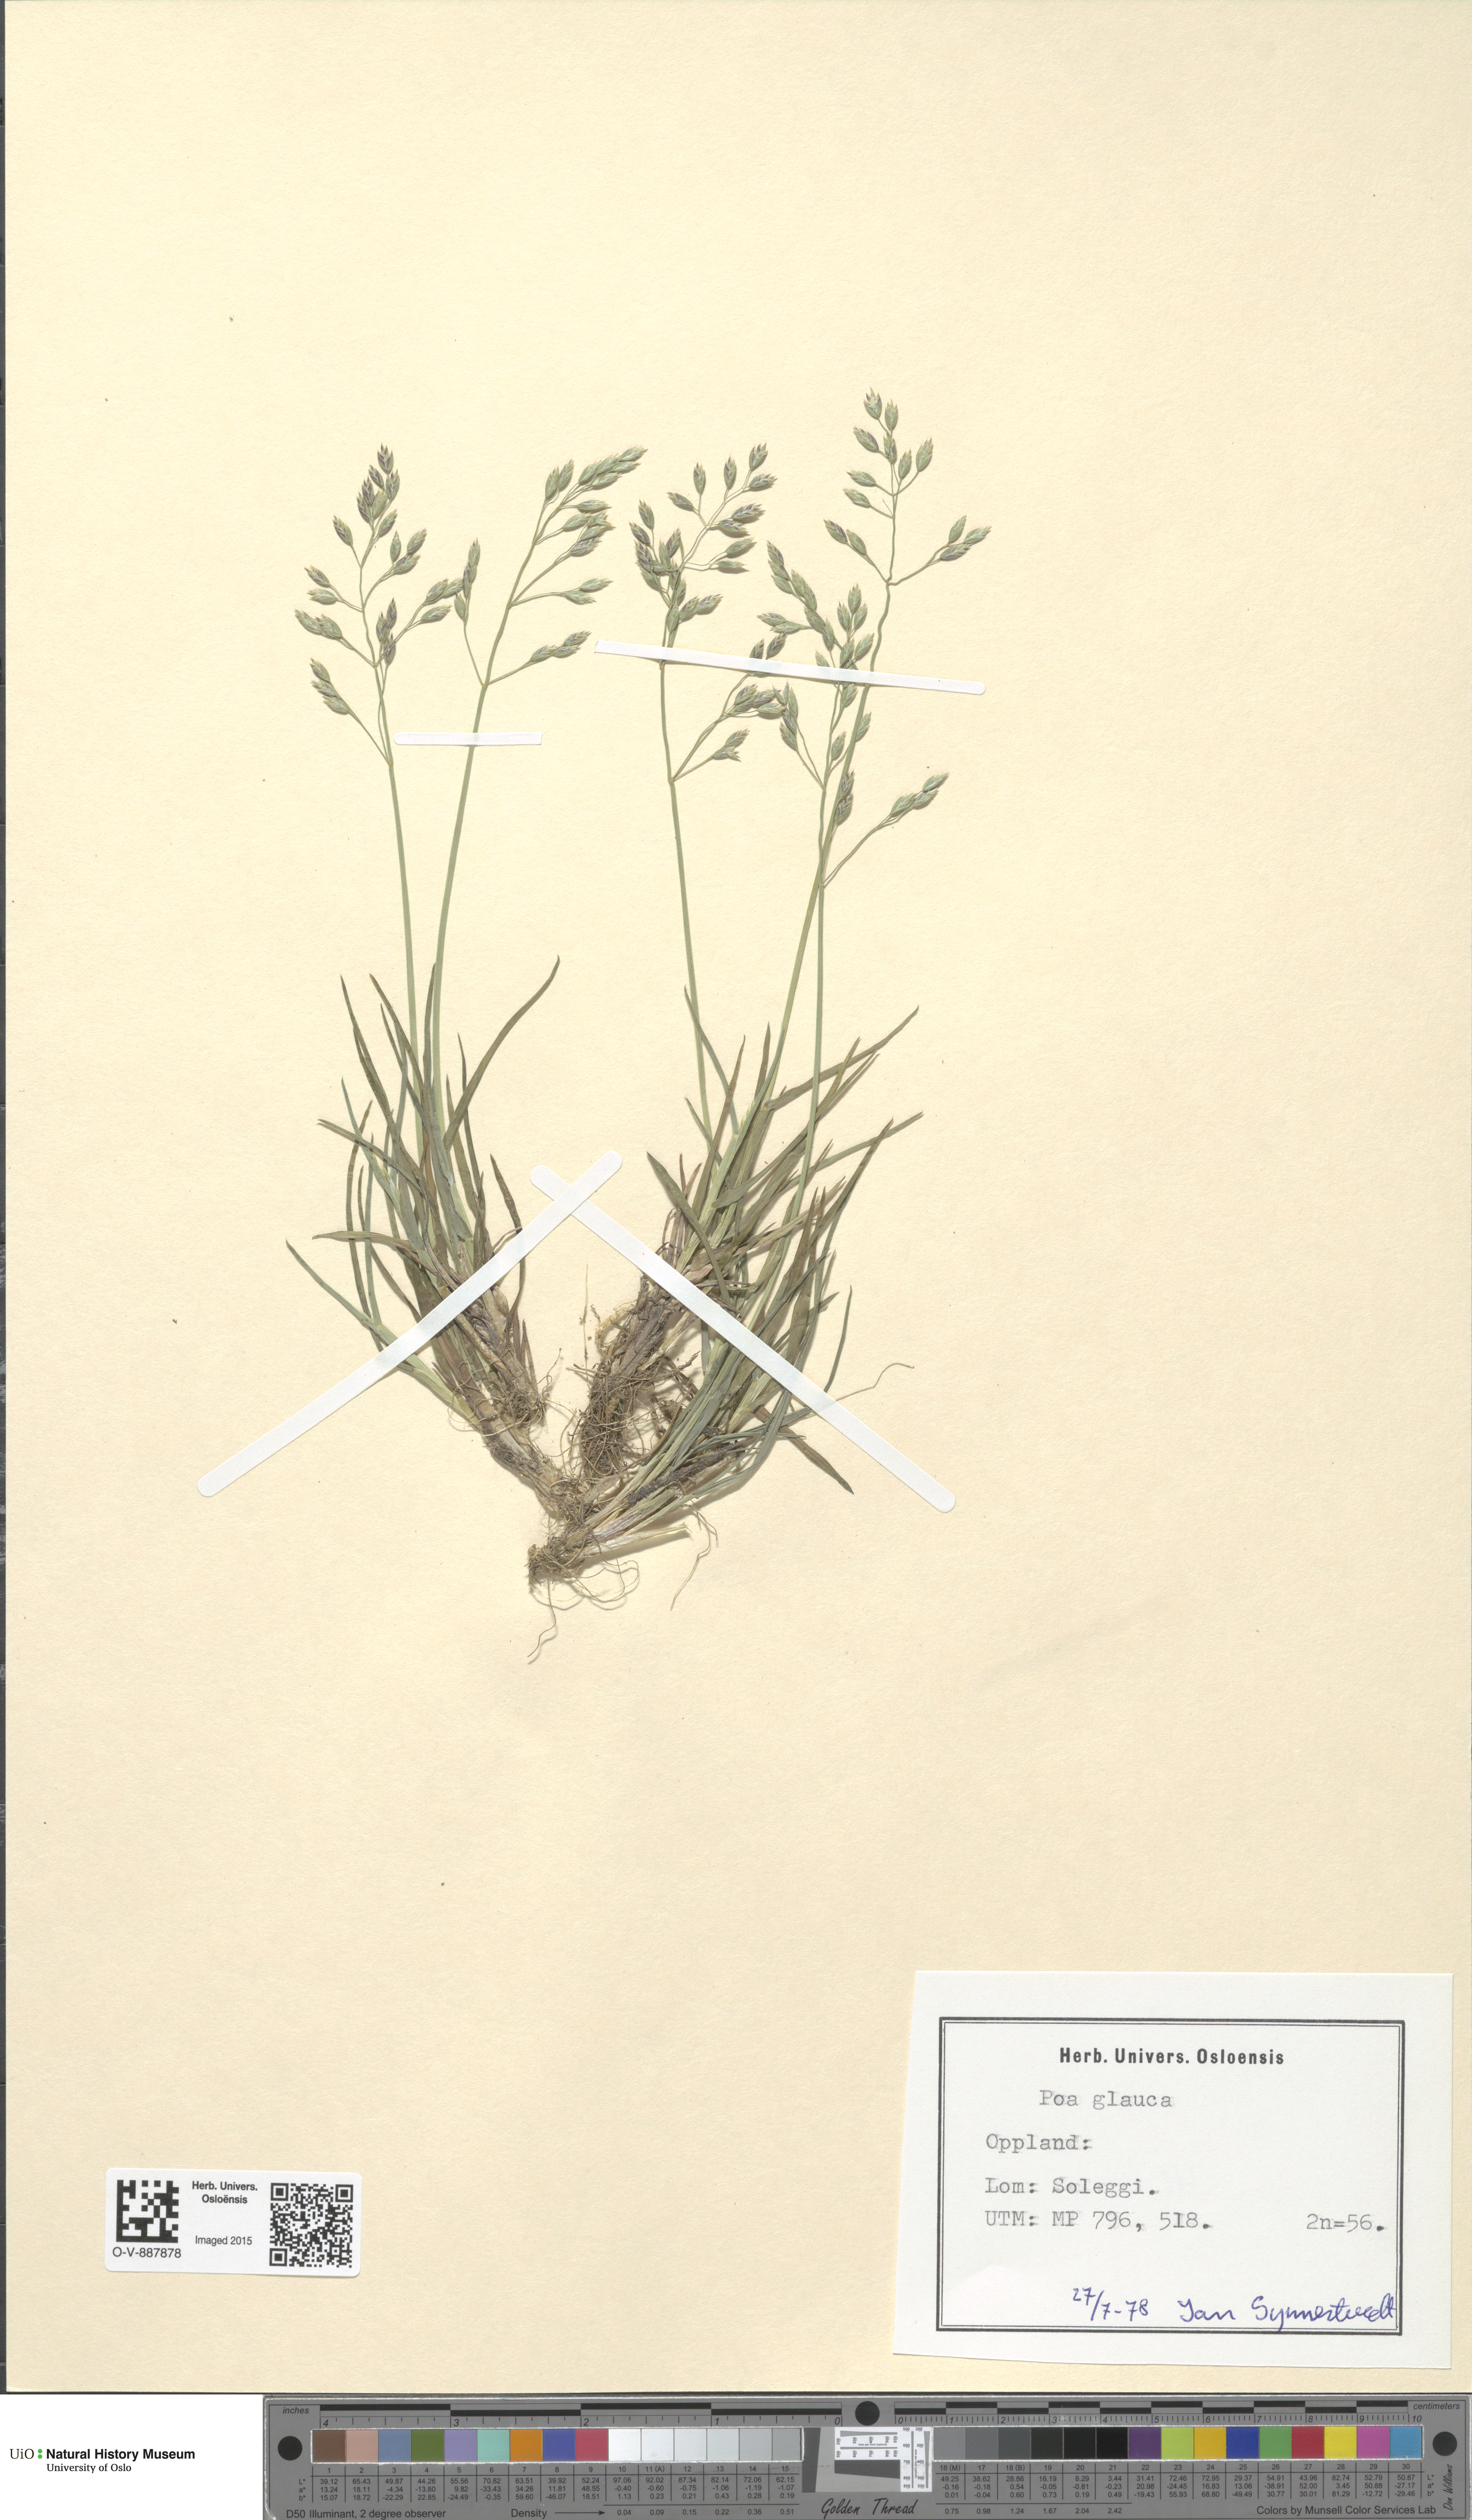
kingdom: Plantae
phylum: Tracheophyta
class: Liliopsida
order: Poales
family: Poaceae
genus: Poa
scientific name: Poa glauca
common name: Glaucous bluegrass
